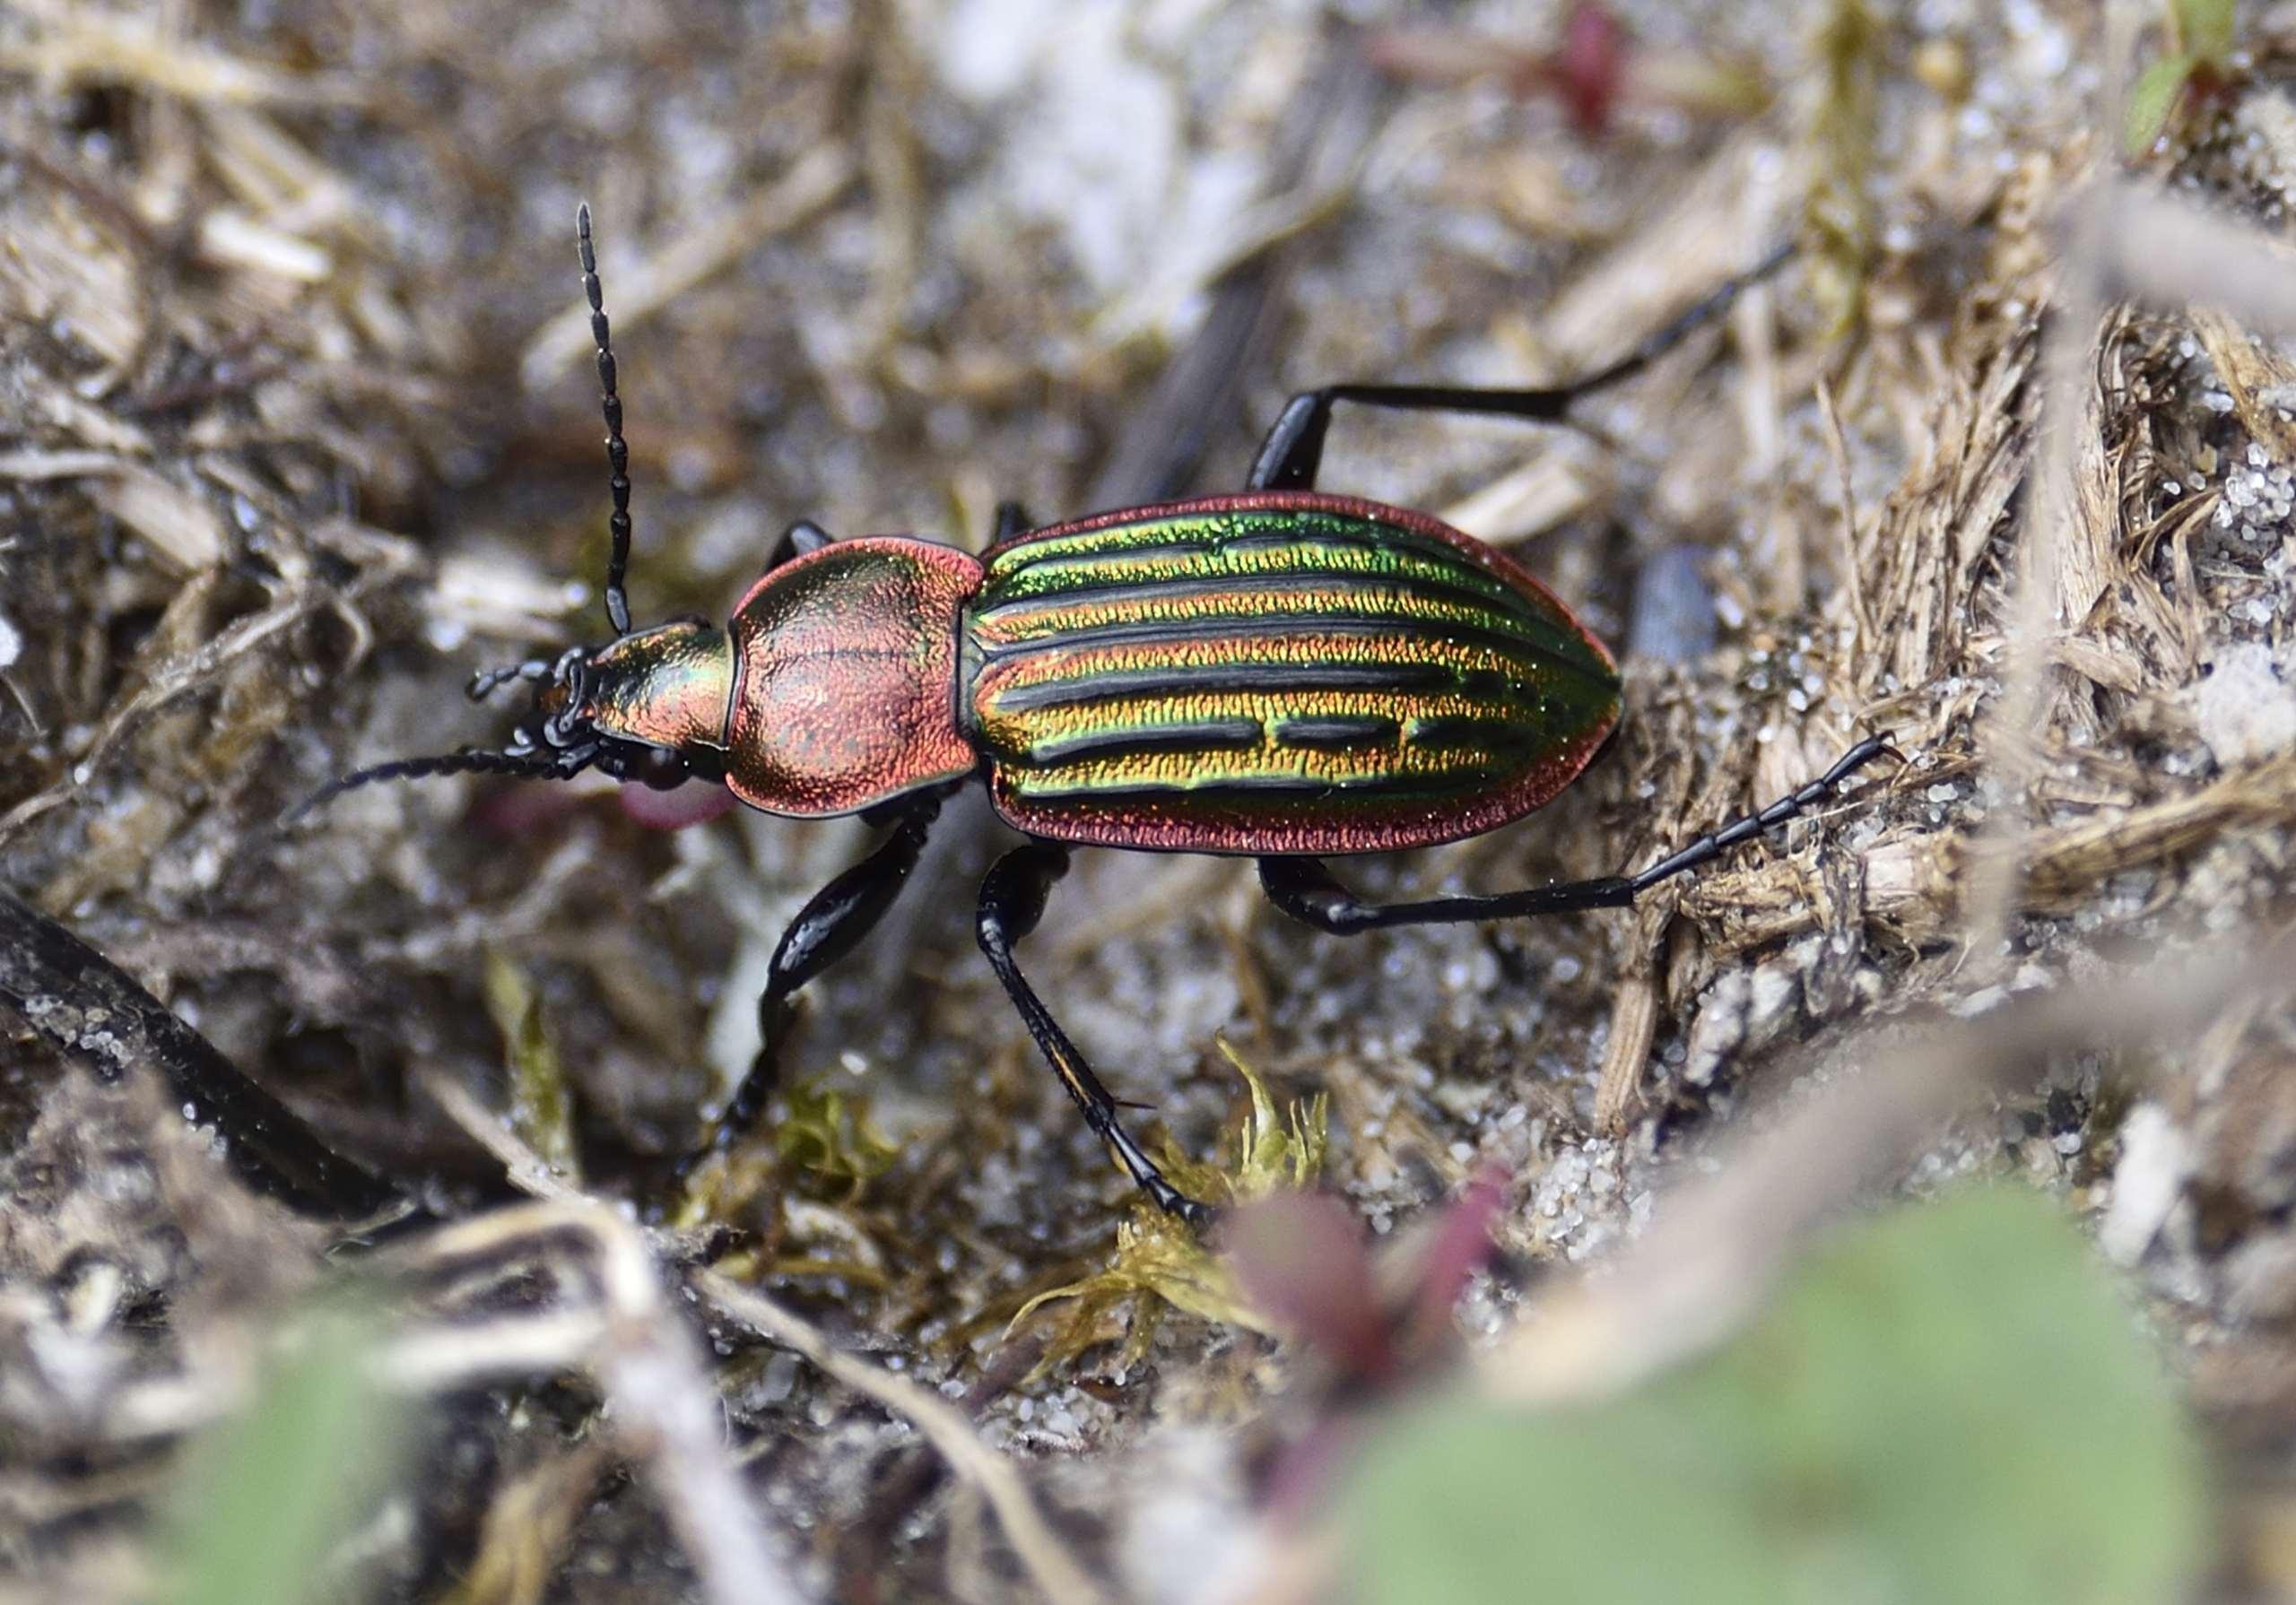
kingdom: Animalia
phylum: Arthropoda
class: Insecta
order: Coleoptera
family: Carabidae
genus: Carabus
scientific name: Carabus nitens
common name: Lille guldløber
